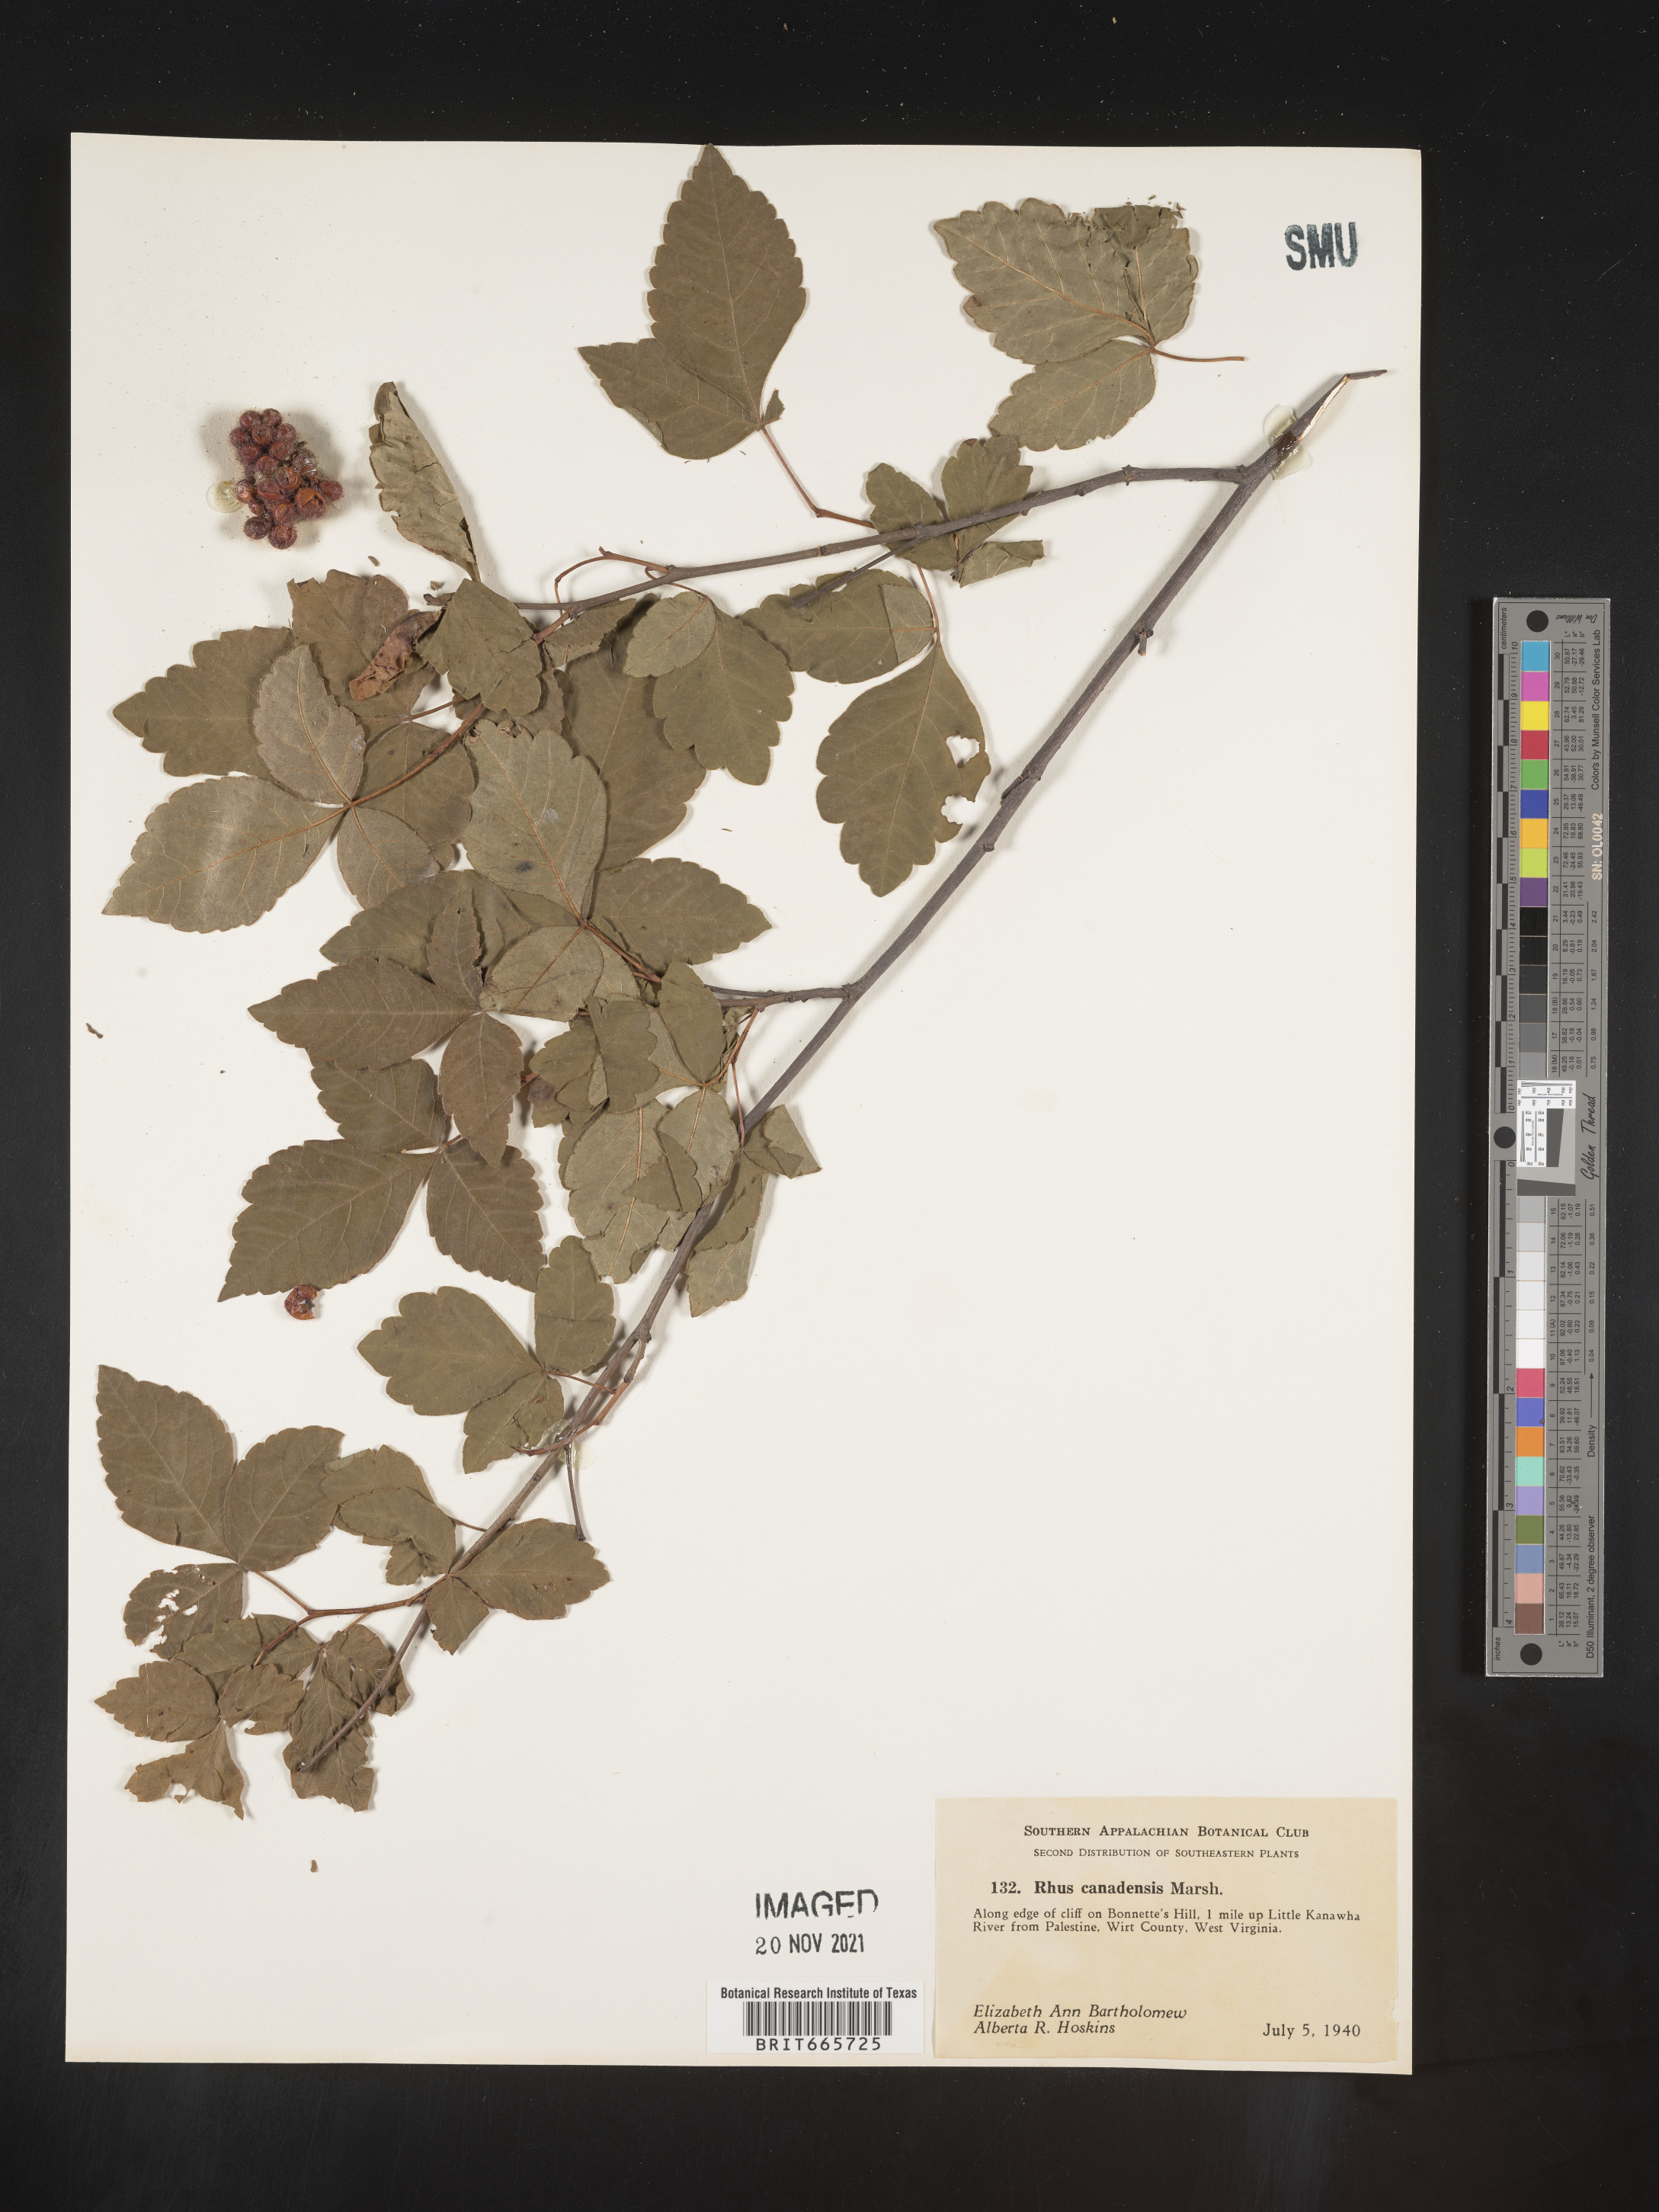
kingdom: Plantae
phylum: Tracheophyta
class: Magnoliopsida
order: Sapindales
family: Anacardiaceae
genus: Rhus
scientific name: Rhus aromatica
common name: Aromatic sumac
